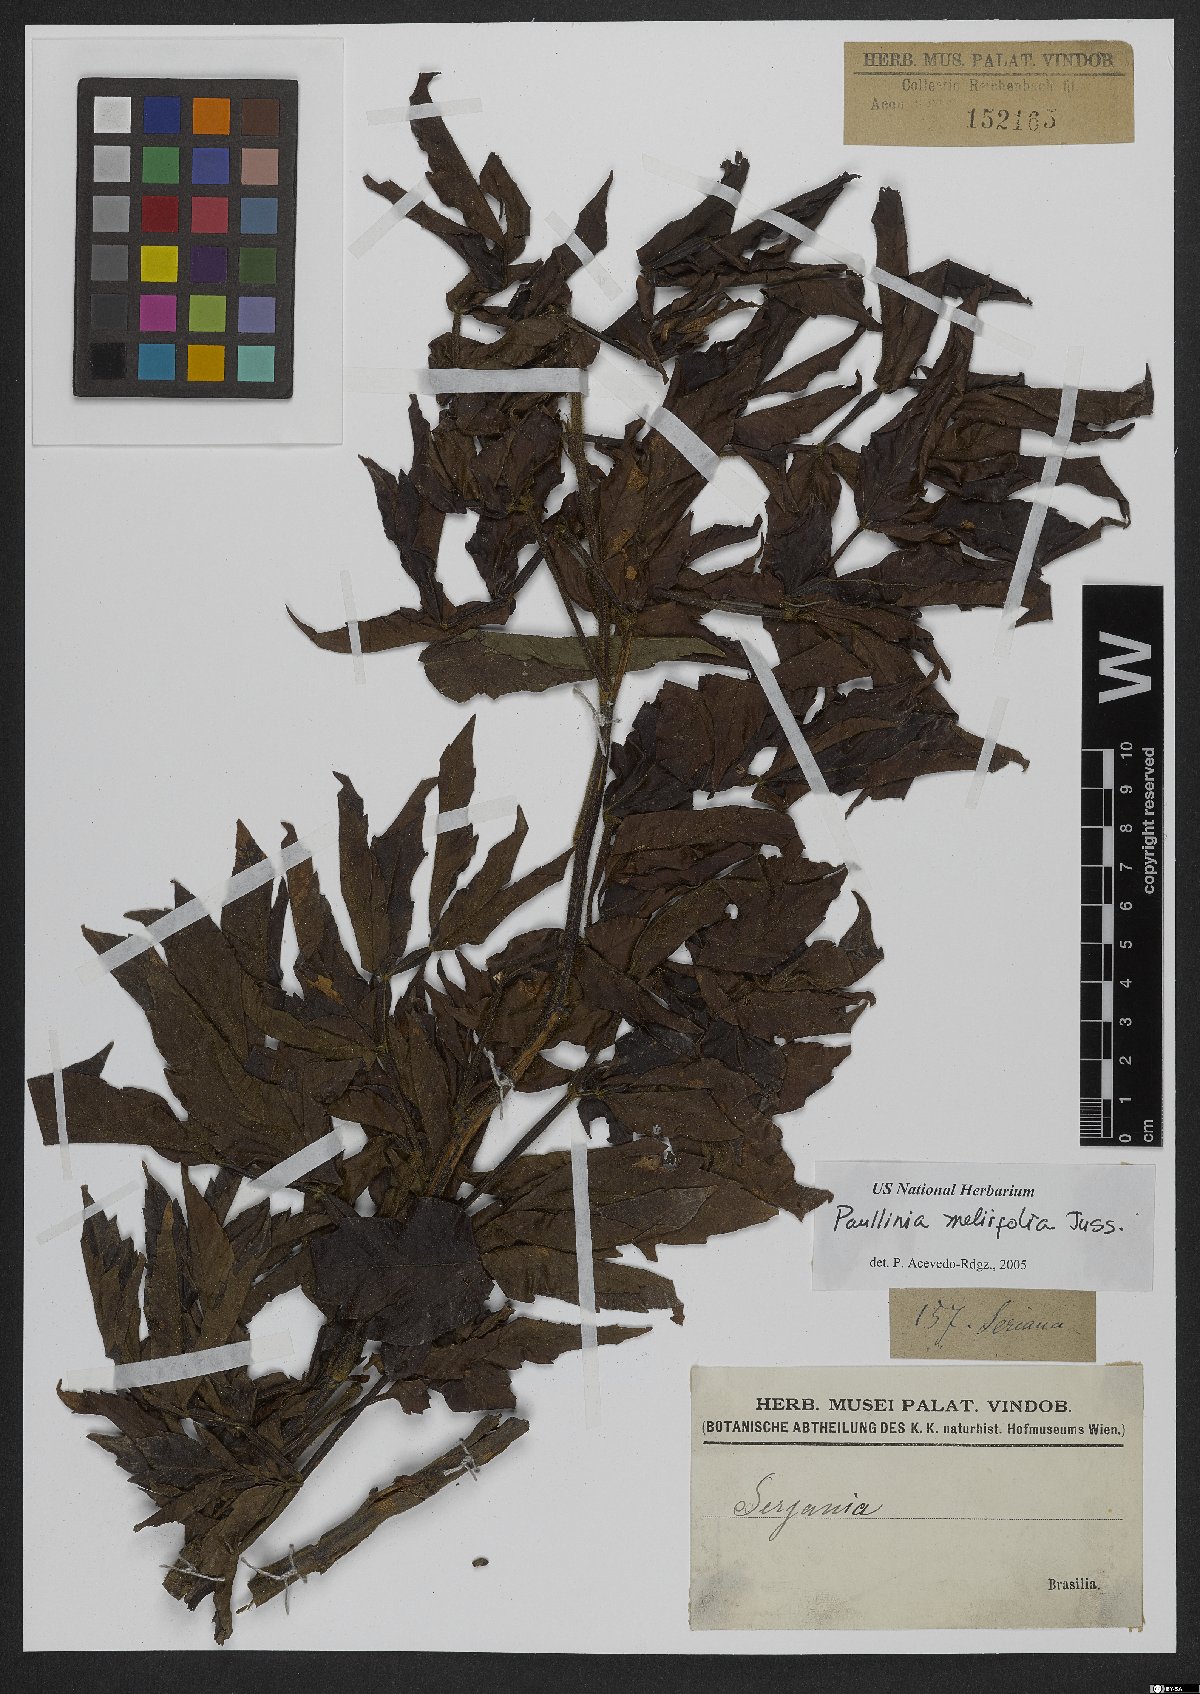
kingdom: Plantae
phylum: Tracheophyta
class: Magnoliopsida
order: Sapindales
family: Sapindaceae
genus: Paullinia
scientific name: Paullinia meliifolia
